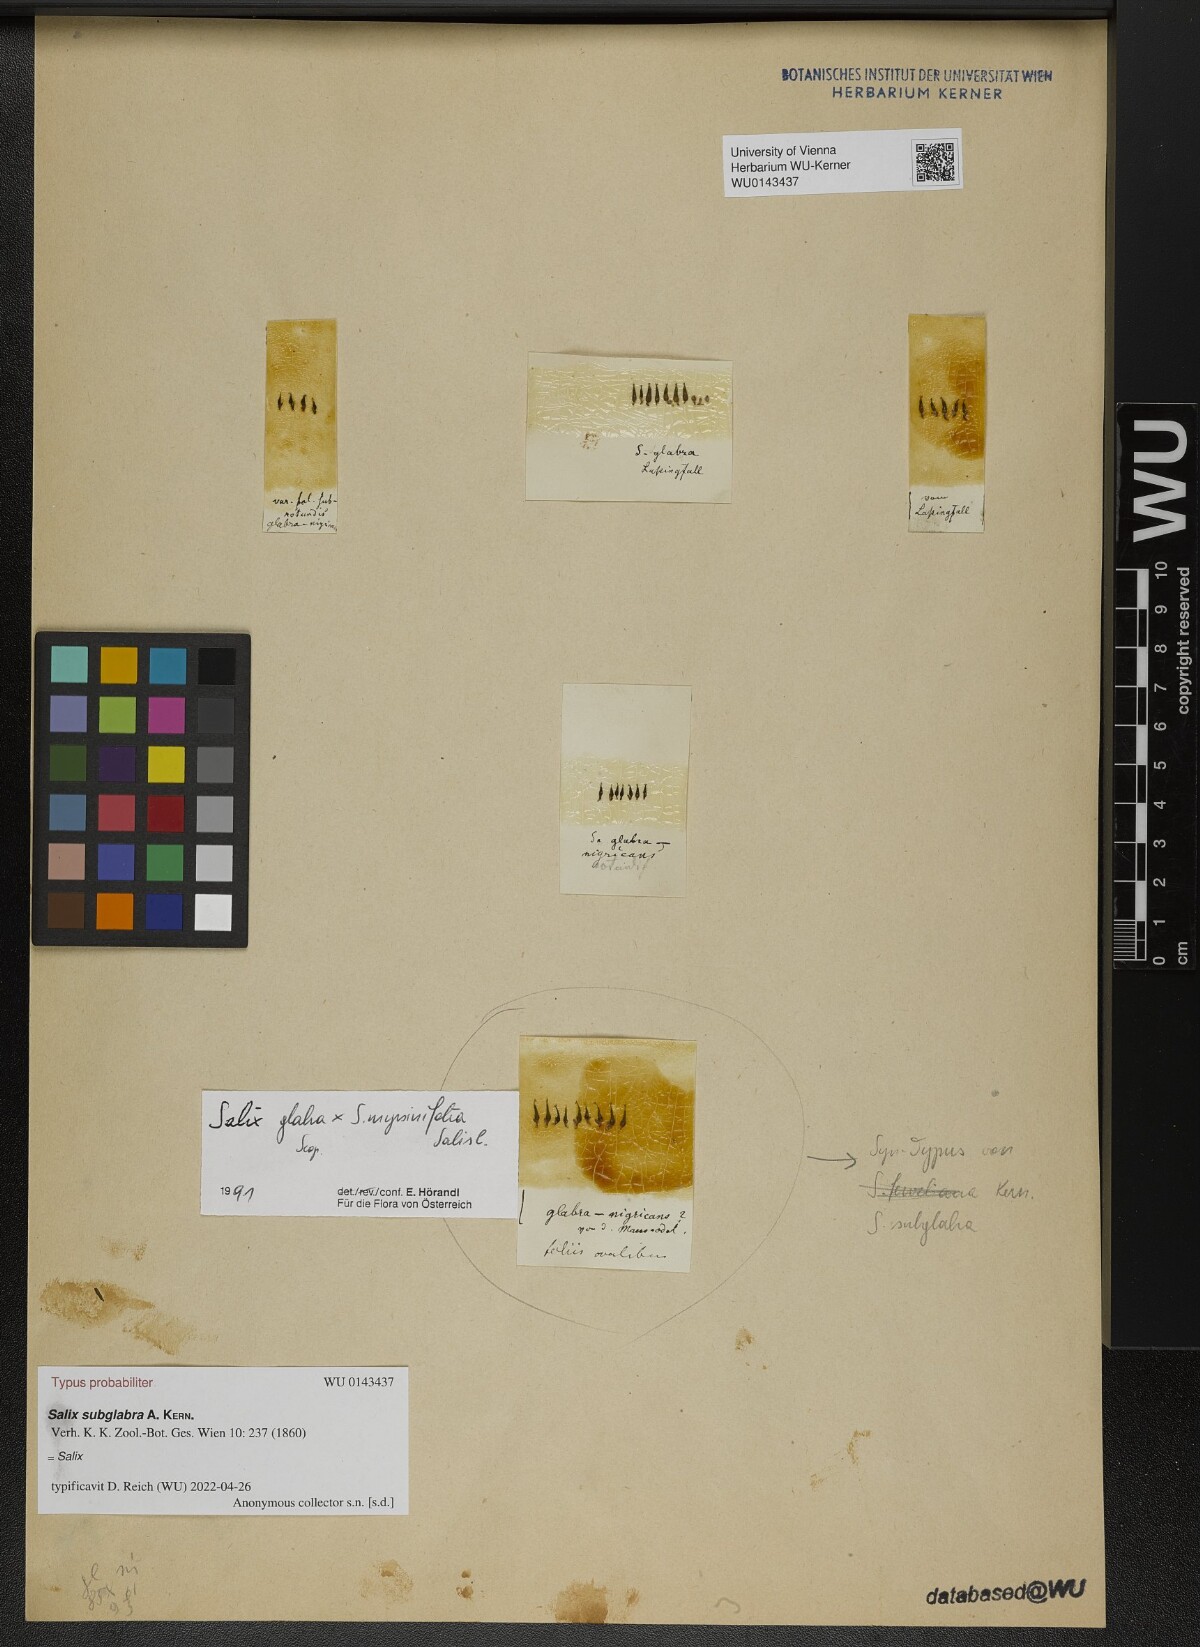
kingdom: Plantae
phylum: Tracheophyta
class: Magnoliopsida
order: Malpighiales
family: Salicaceae
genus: Salix
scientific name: Salix subglabra
